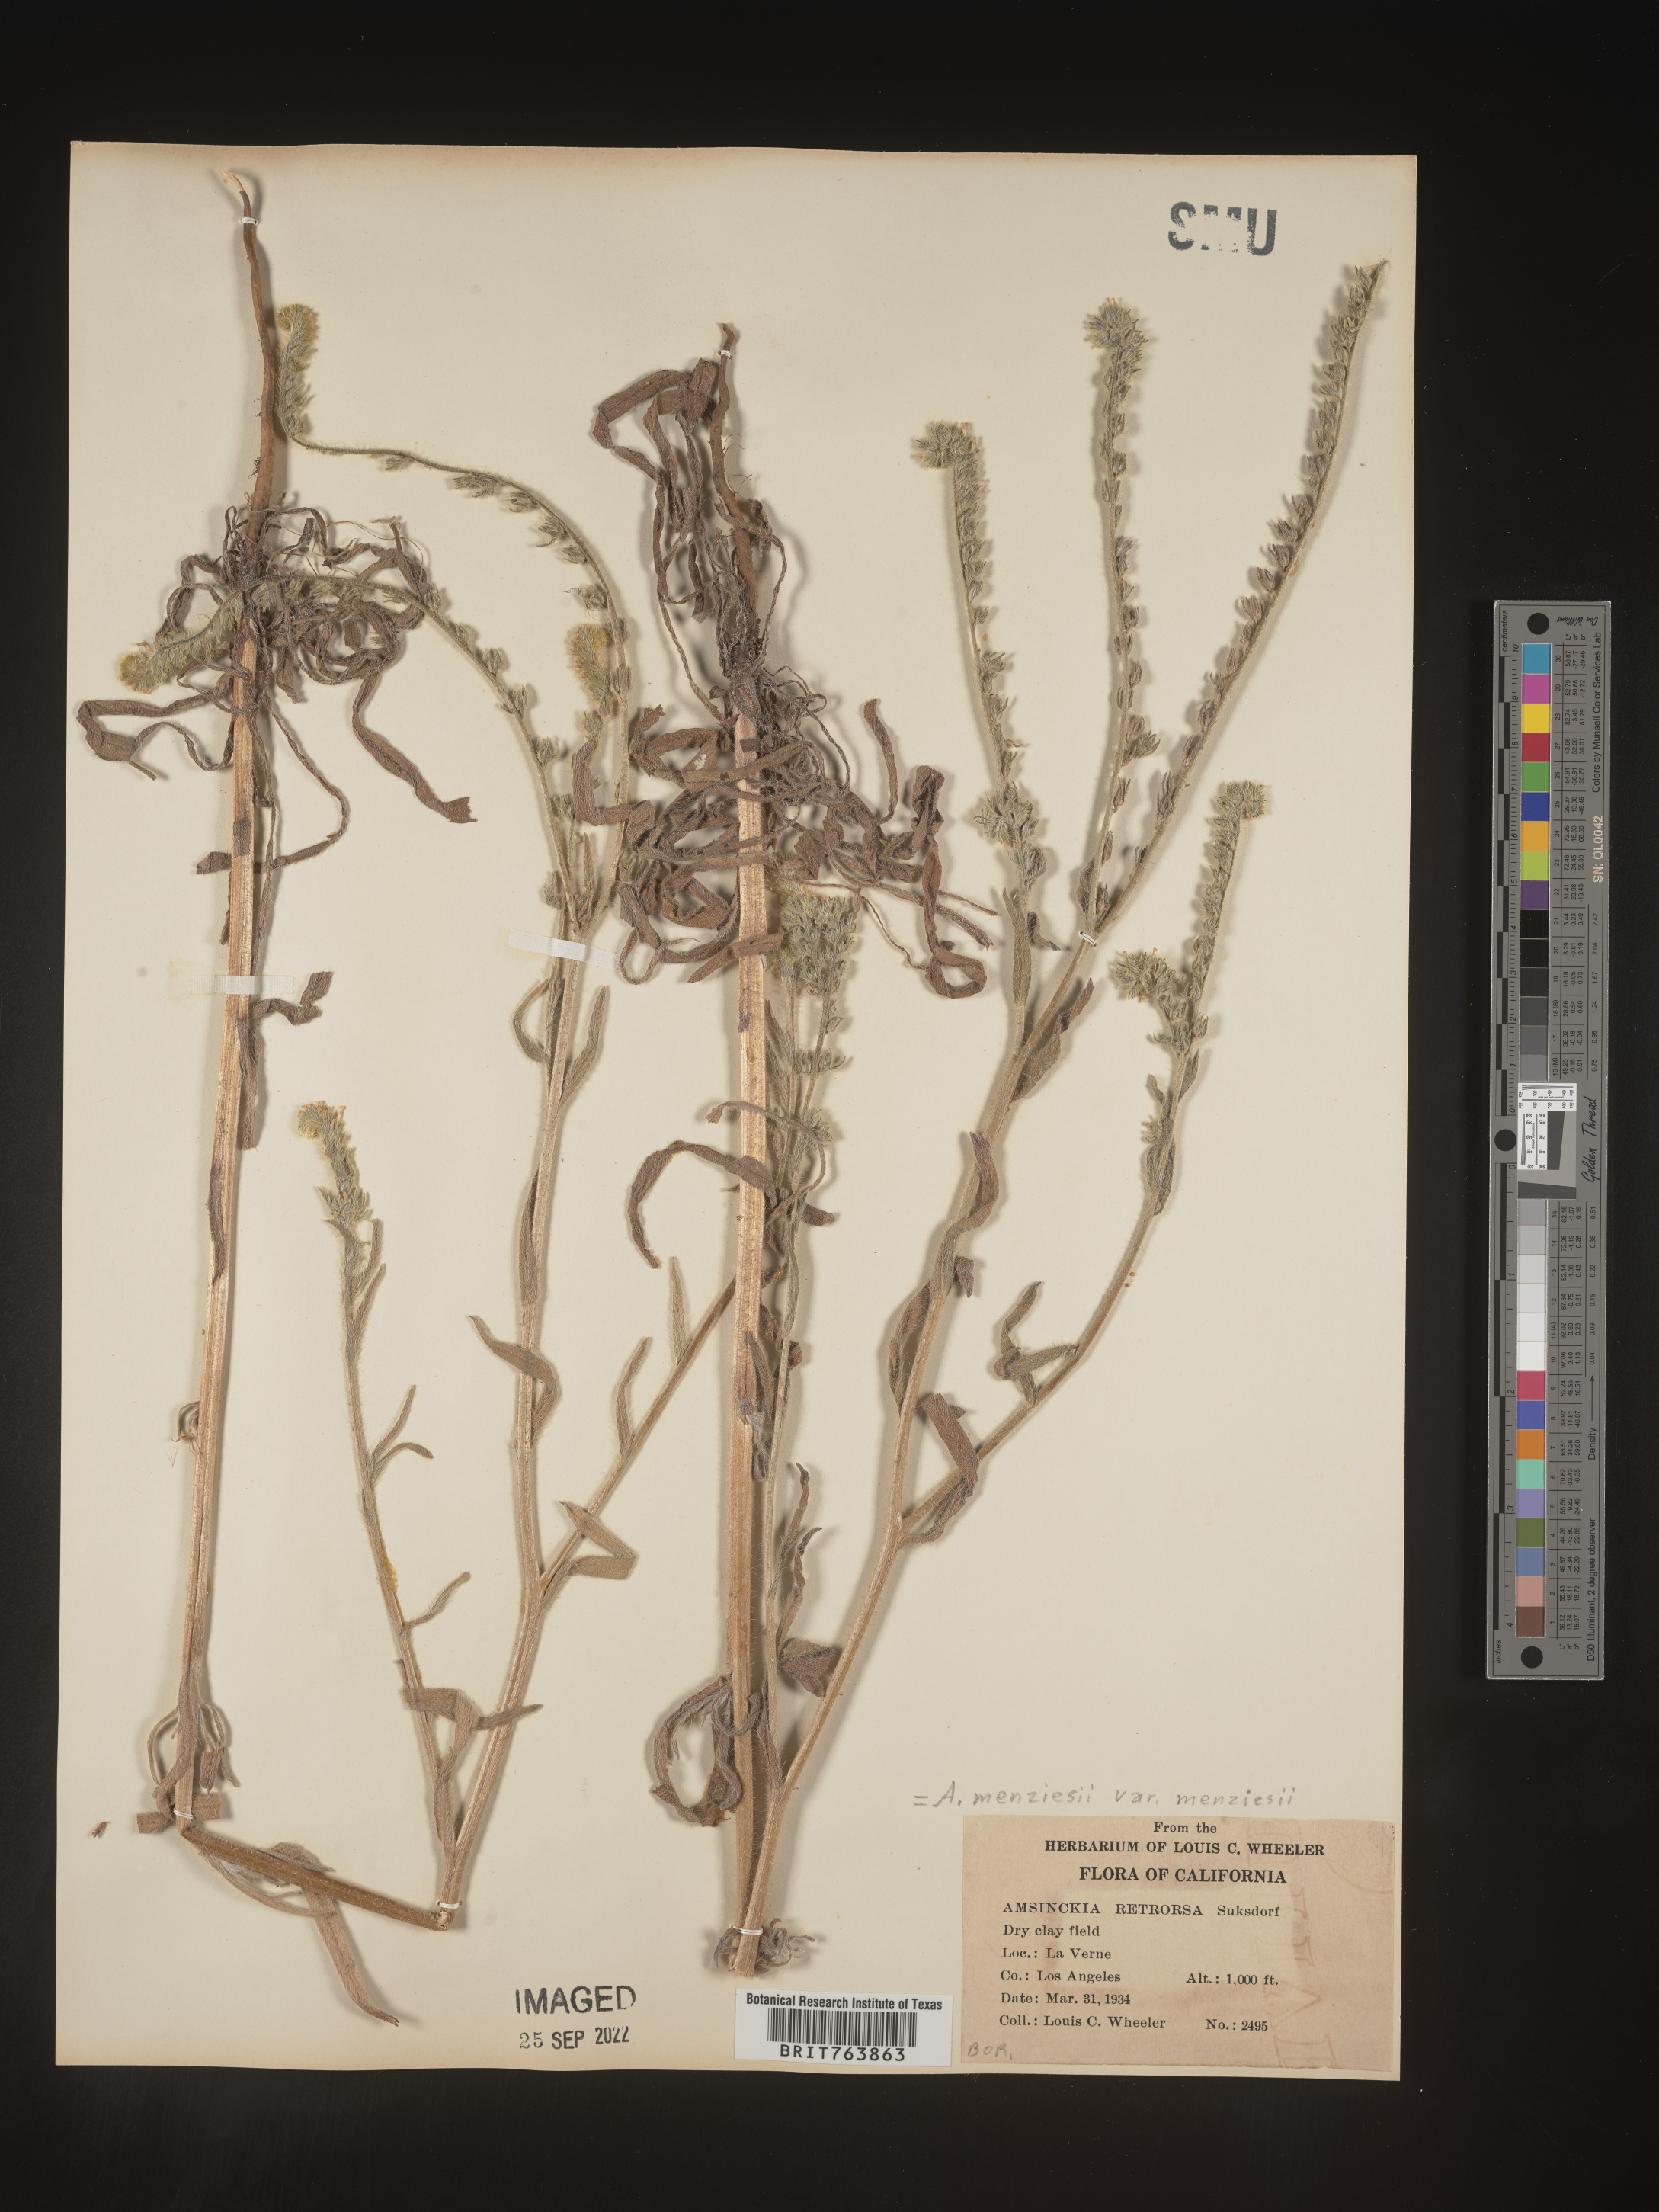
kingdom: Plantae
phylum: Tracheophyta
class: Magnoliopsida
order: Boraginales
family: Boraginaceae
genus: Amsinckia
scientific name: Amsinckia menziesii
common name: Menzies' fiddleneck
